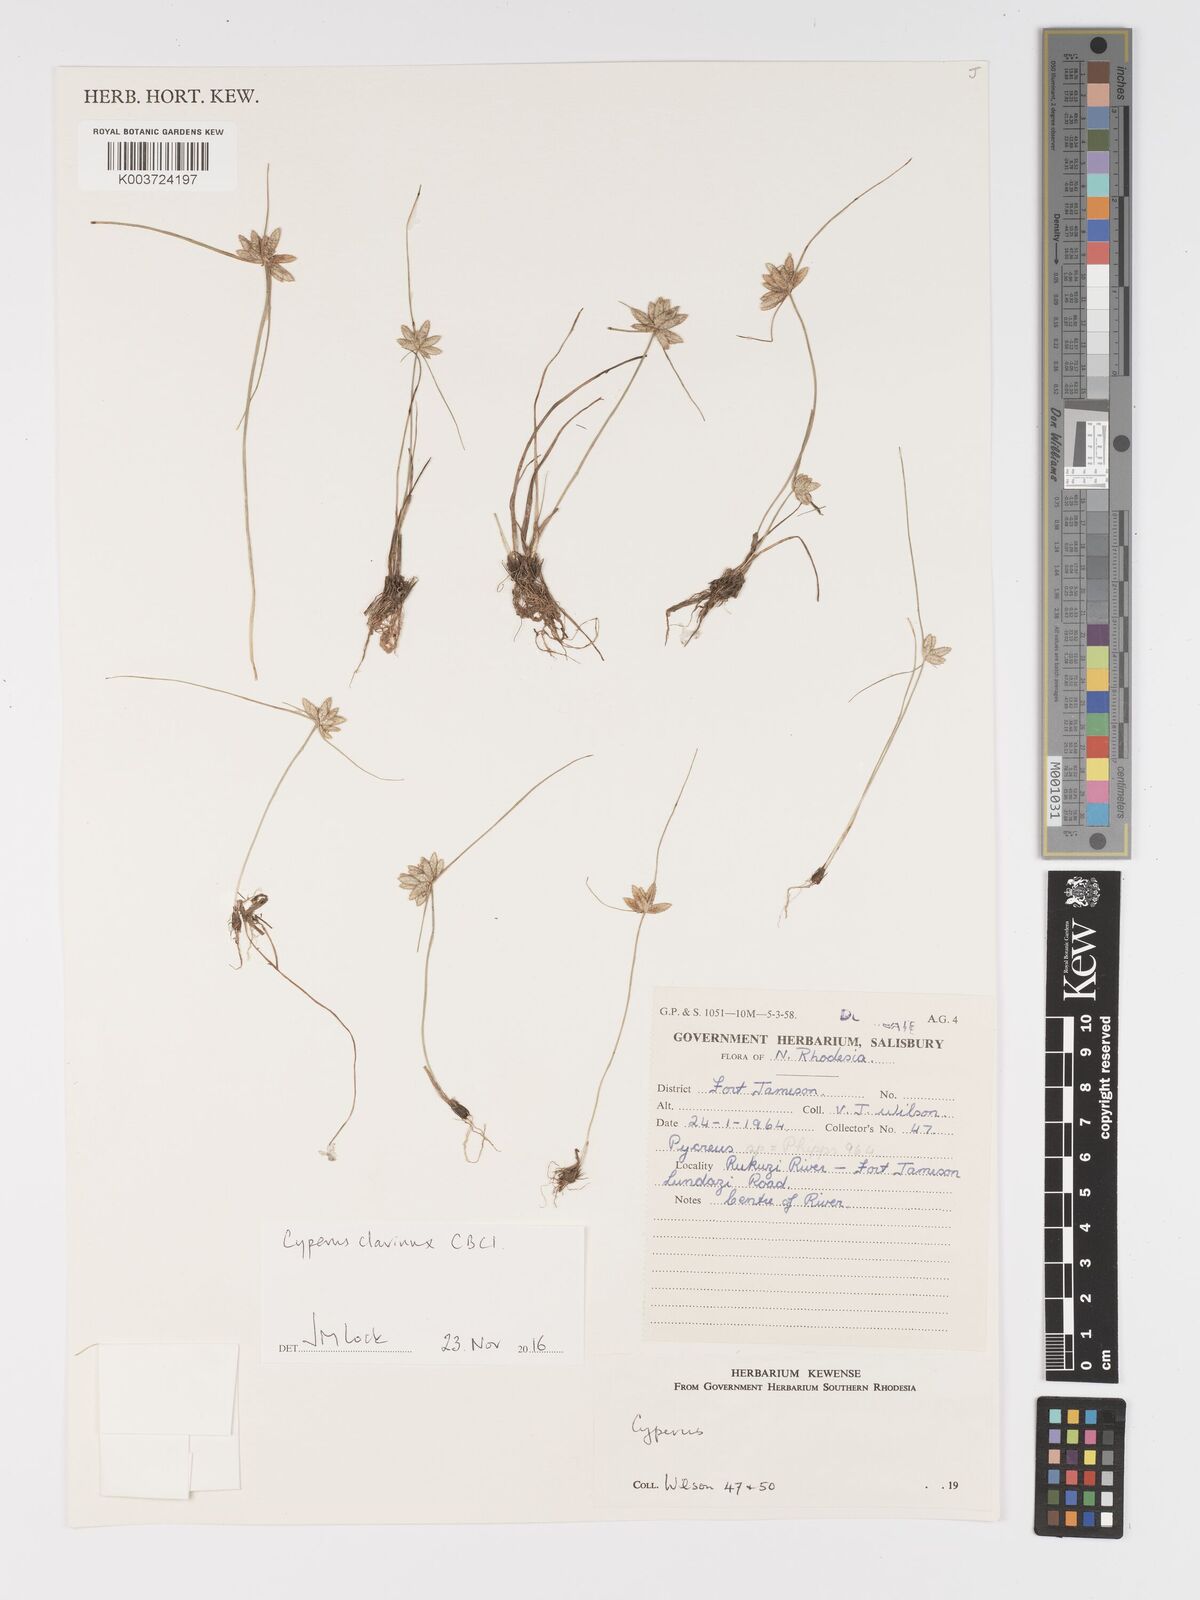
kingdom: Plantae
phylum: Tracheophyta
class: Liliopsida
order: Poales
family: Cyperaceae
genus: Cyperus
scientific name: Cyperus clavinux
